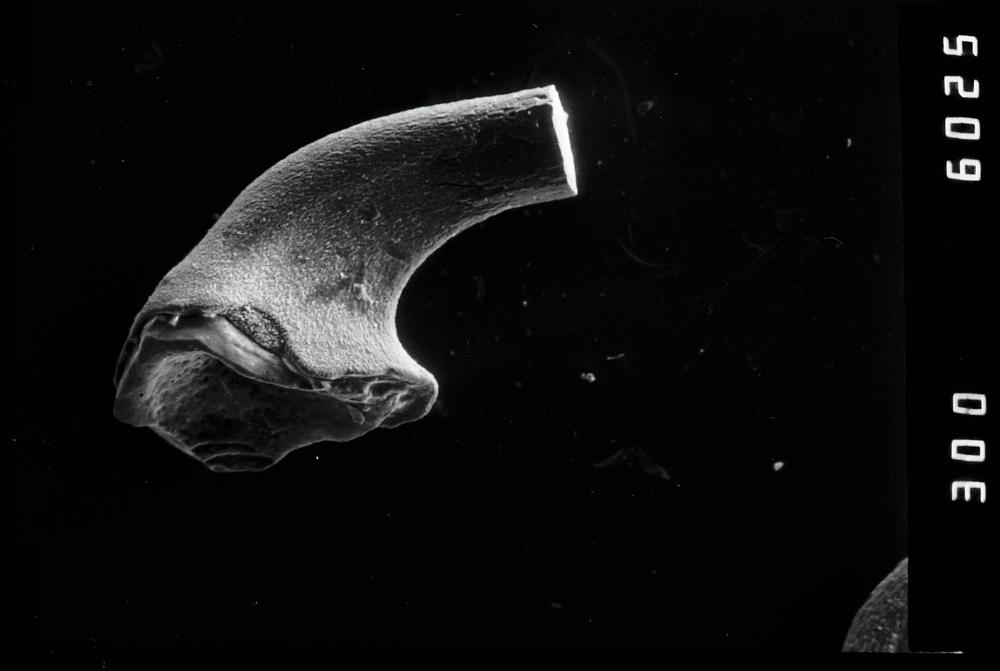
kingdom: Animalia
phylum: Chordata
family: Protopanderodontidae
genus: Variabiloconus
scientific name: Variabiloconus
